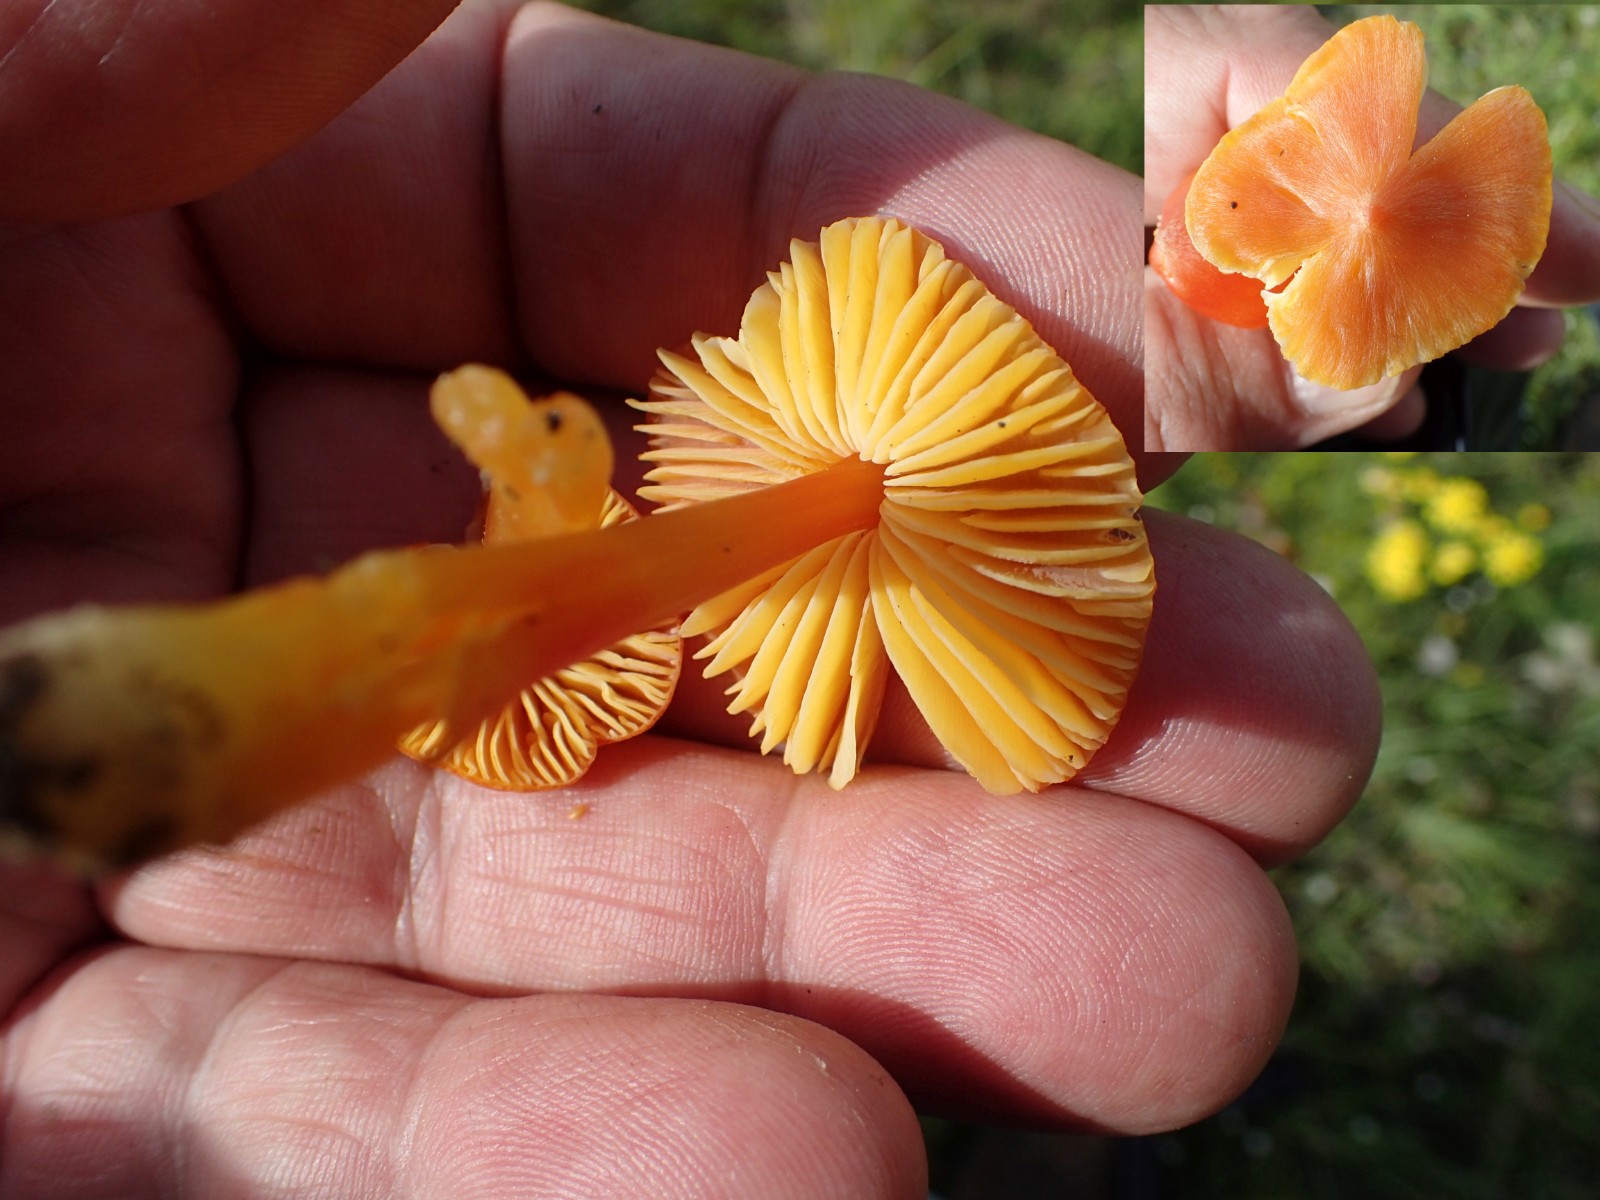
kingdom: Fungi
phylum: Basidiomycota
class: Agaricomycetes
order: Agaricales
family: Hygrophoraceae
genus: Hygrocybe
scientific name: Hygrocybe
